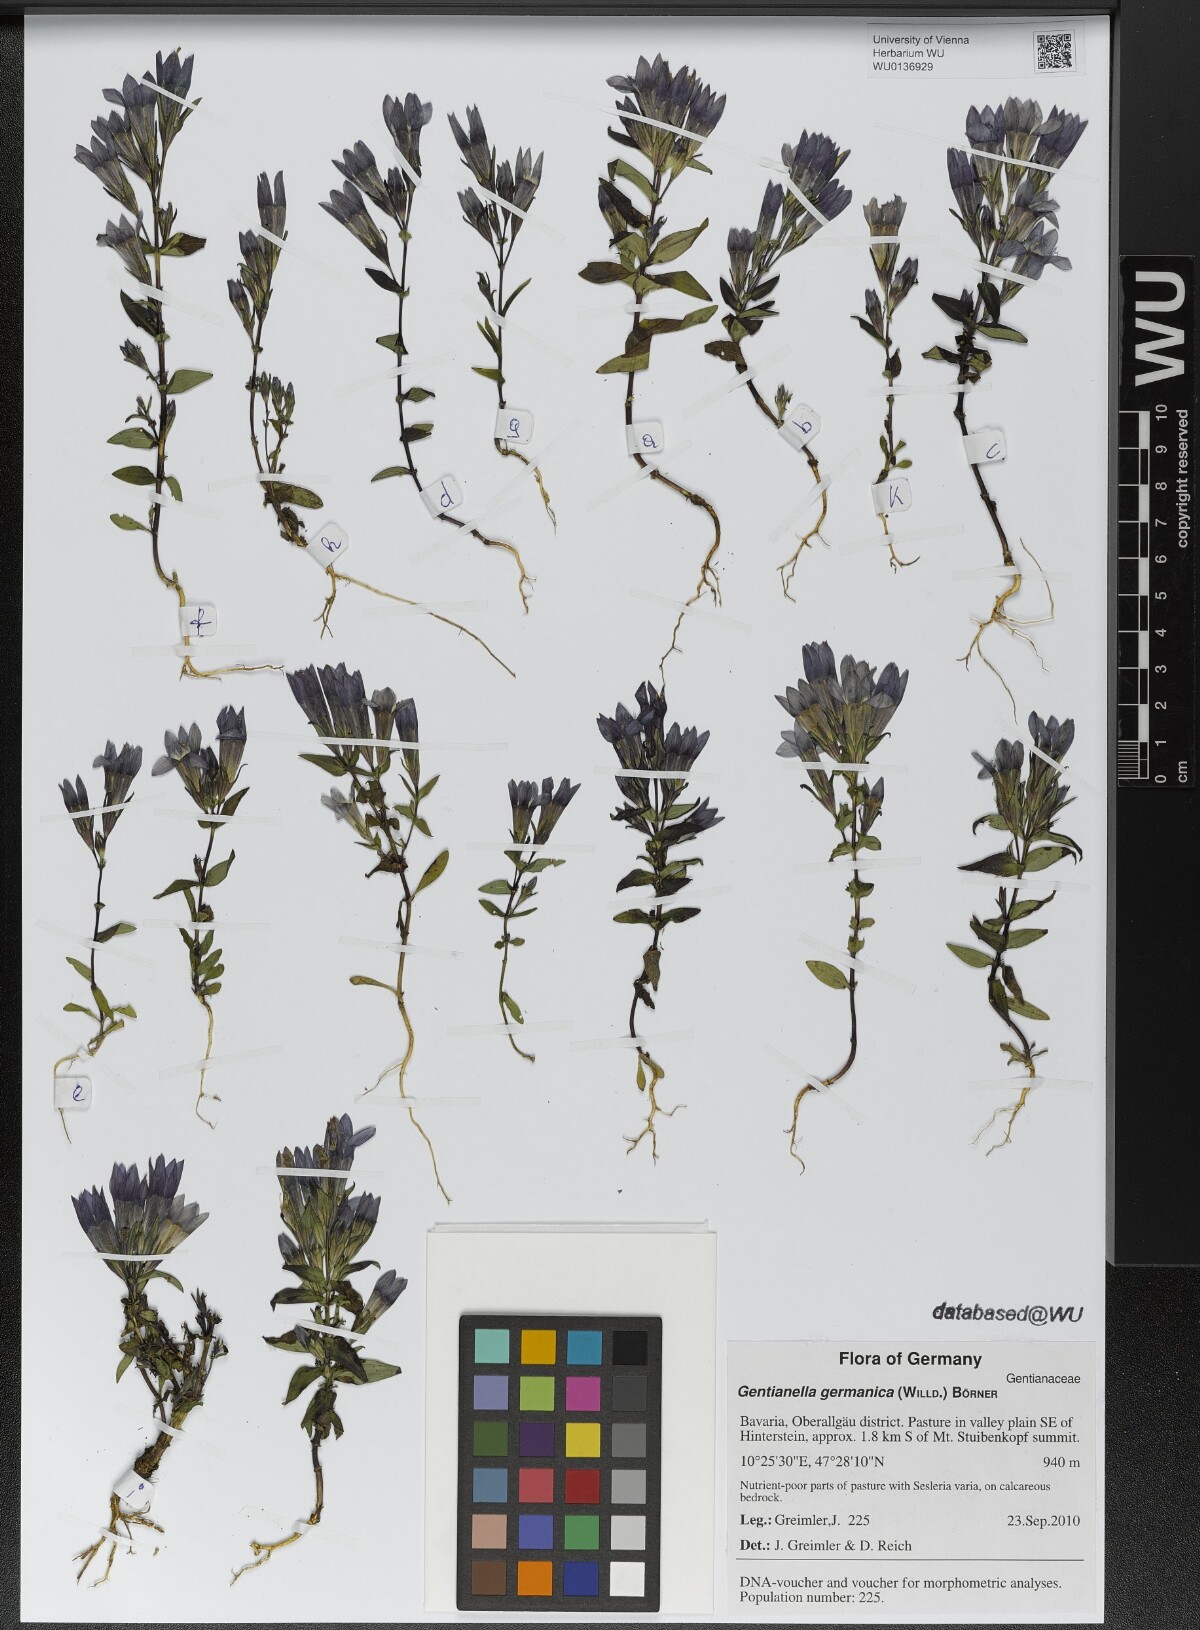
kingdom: Plantae
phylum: Tracheophyta
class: Magnoliopsida
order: Gentianales
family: Gentianaceae
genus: Gentianella
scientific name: Gentianella germanica
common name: Chiltern-gentian
